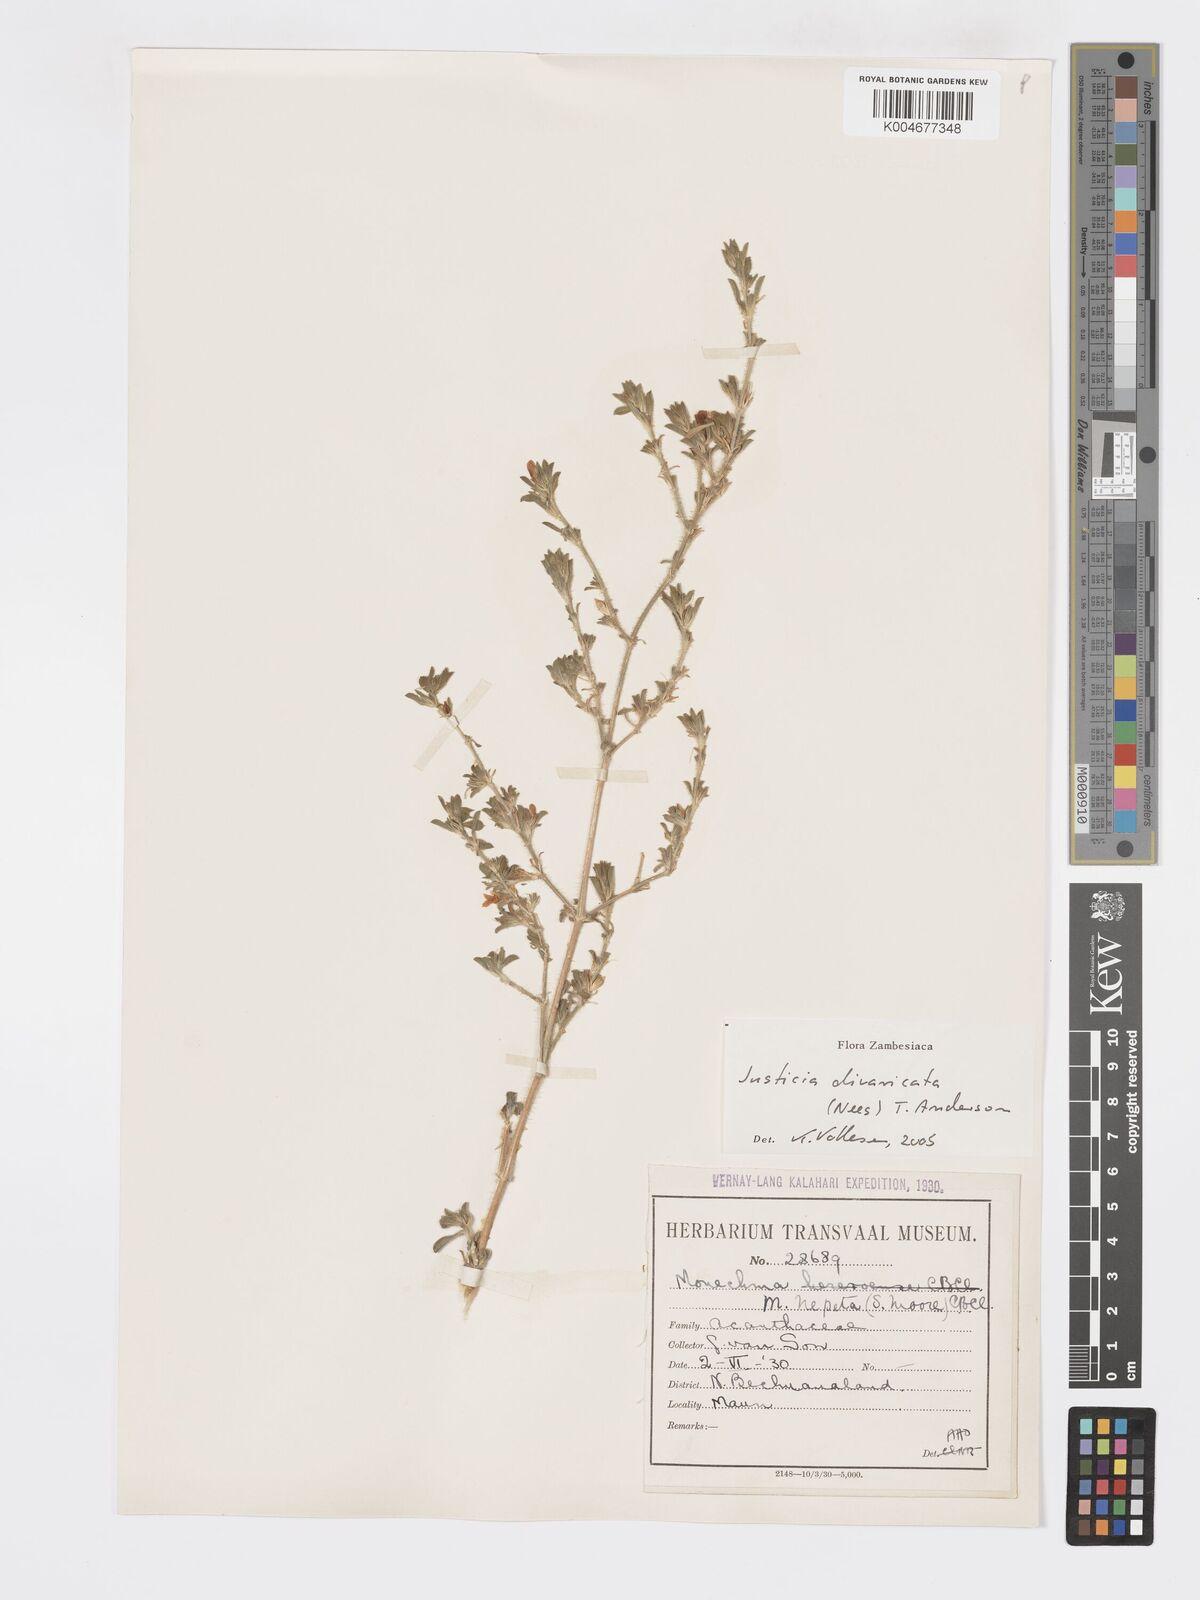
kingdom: Plantae
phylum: Tracheophyta
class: Magnoliopsida
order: Lamiales
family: Acanthaceae
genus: Pogonospermum
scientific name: Pogonospermum
